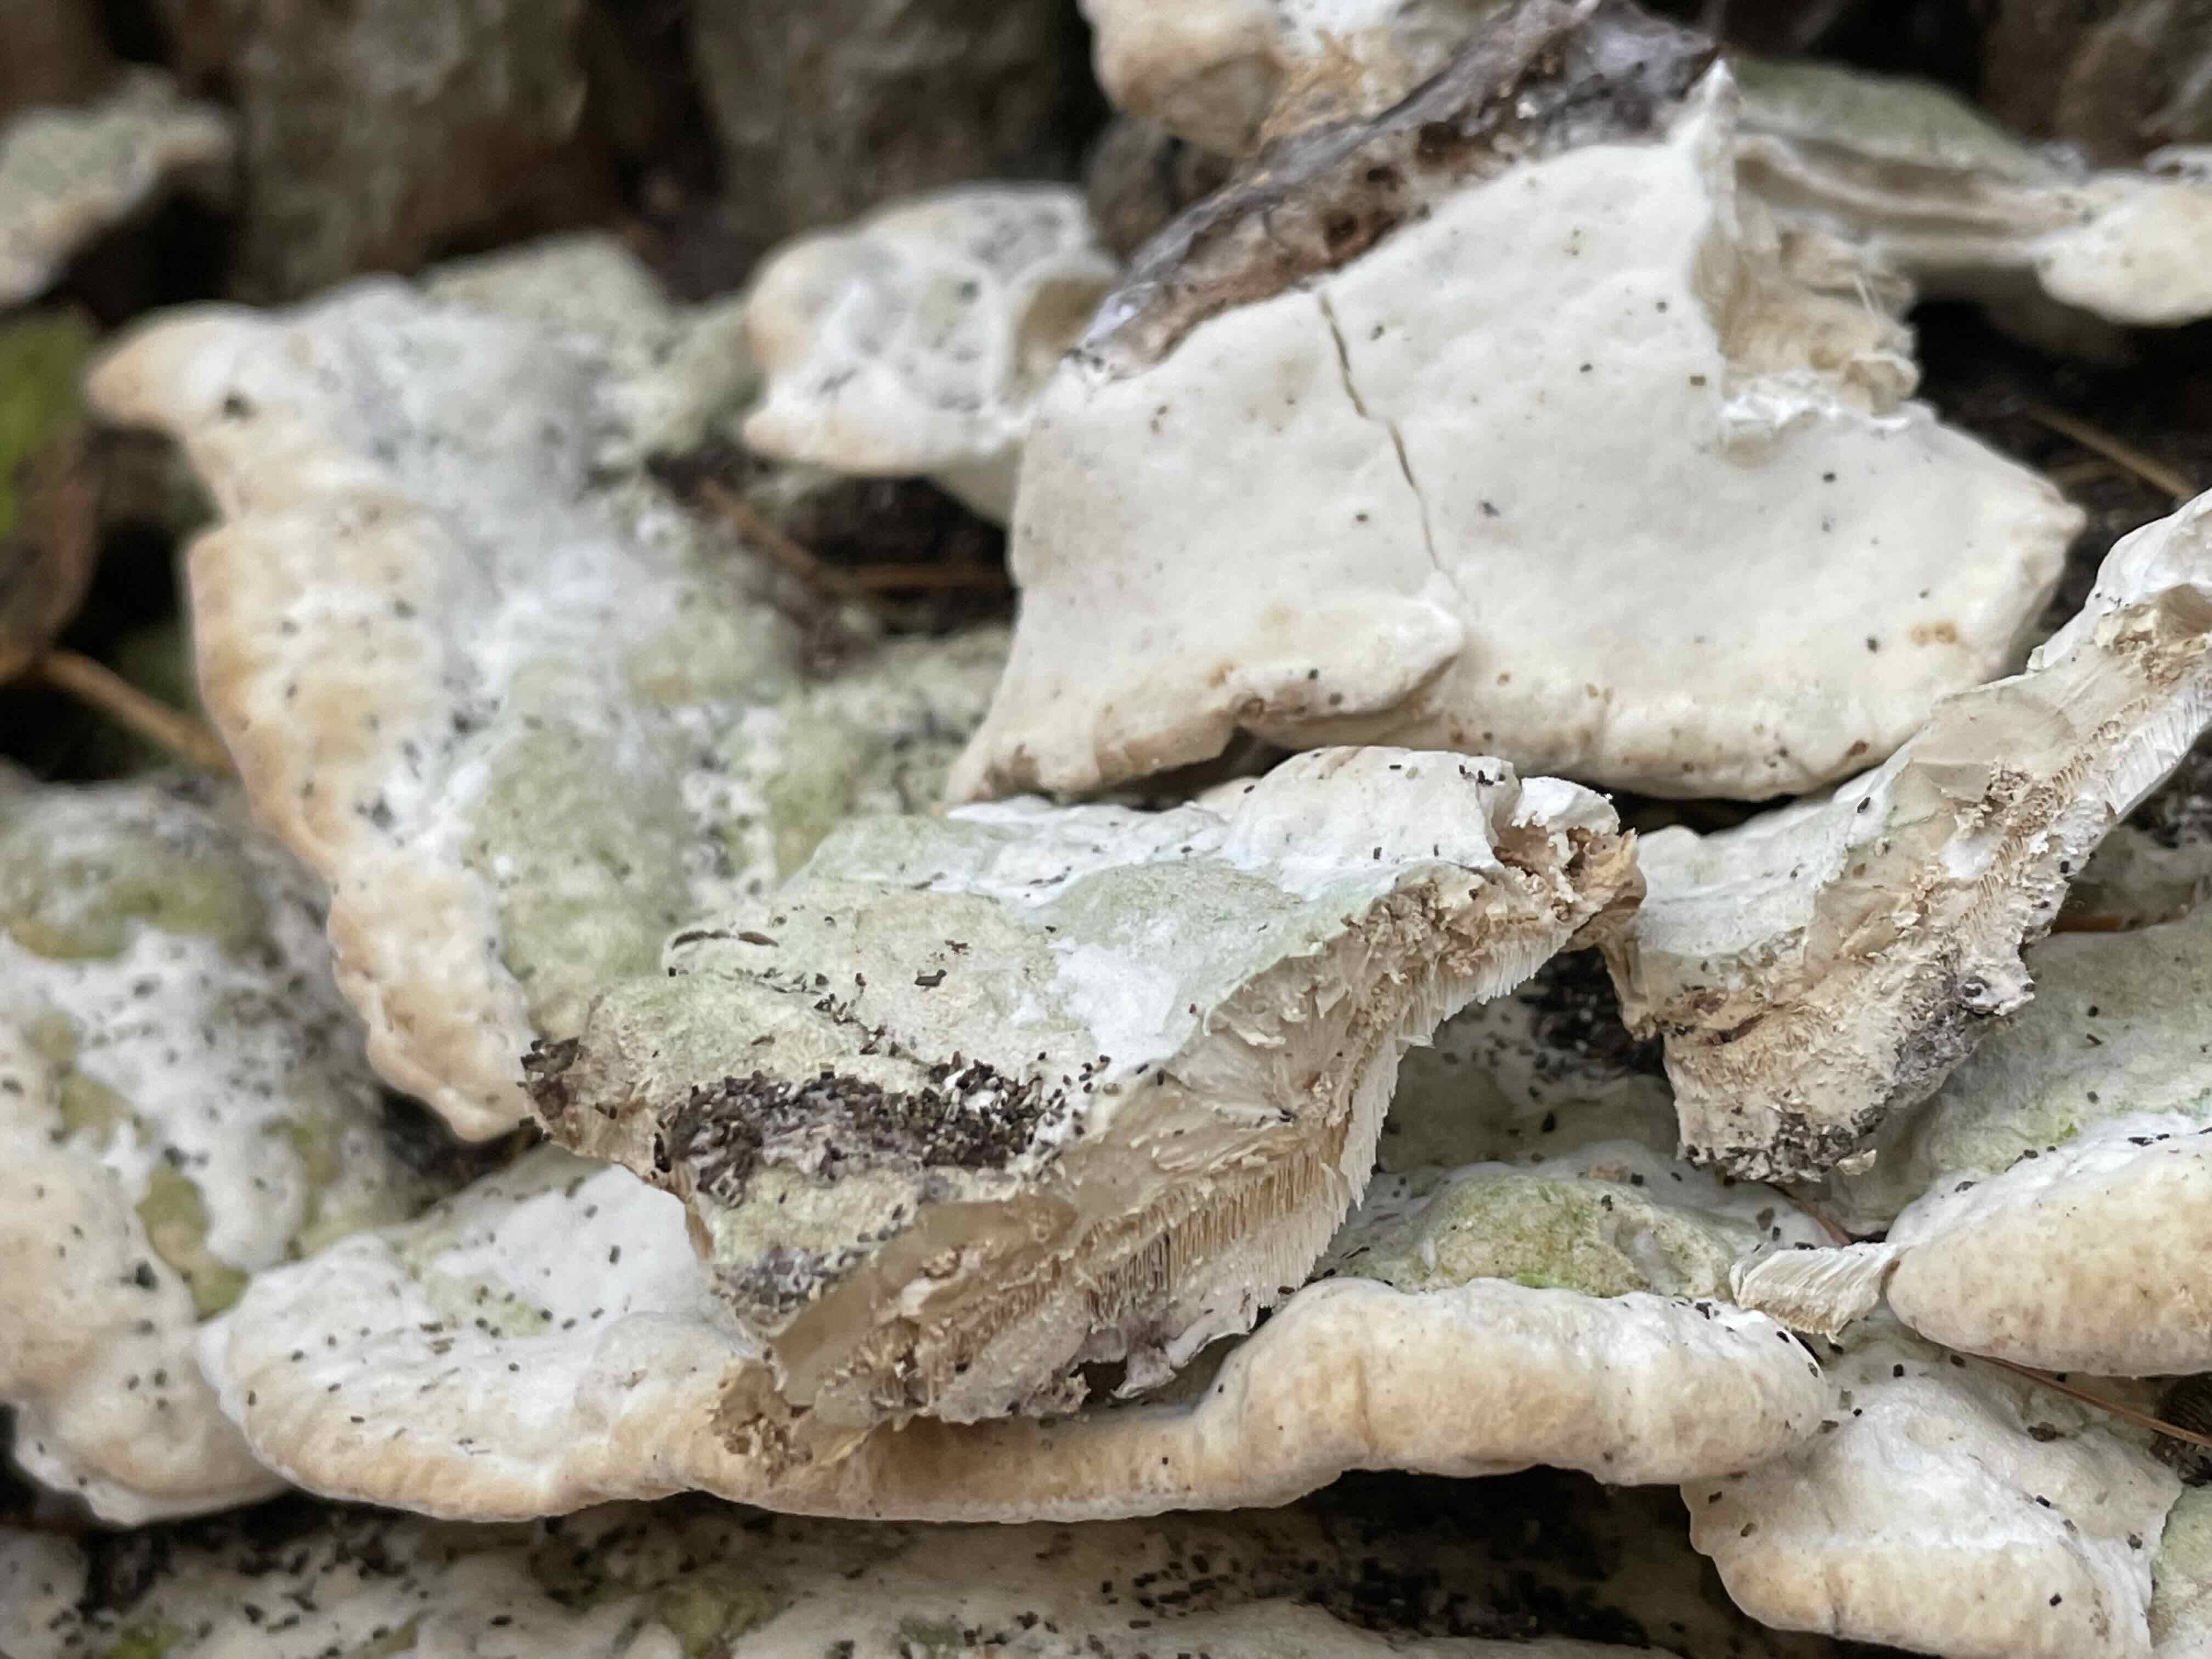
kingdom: Fungi
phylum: Basidiomycota
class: Agaricomycetes
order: Hymenochaetales
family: Oxyporaceae
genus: Oxyporus
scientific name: Oxyporus populinus
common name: sammenvokset trylleporesvamp
